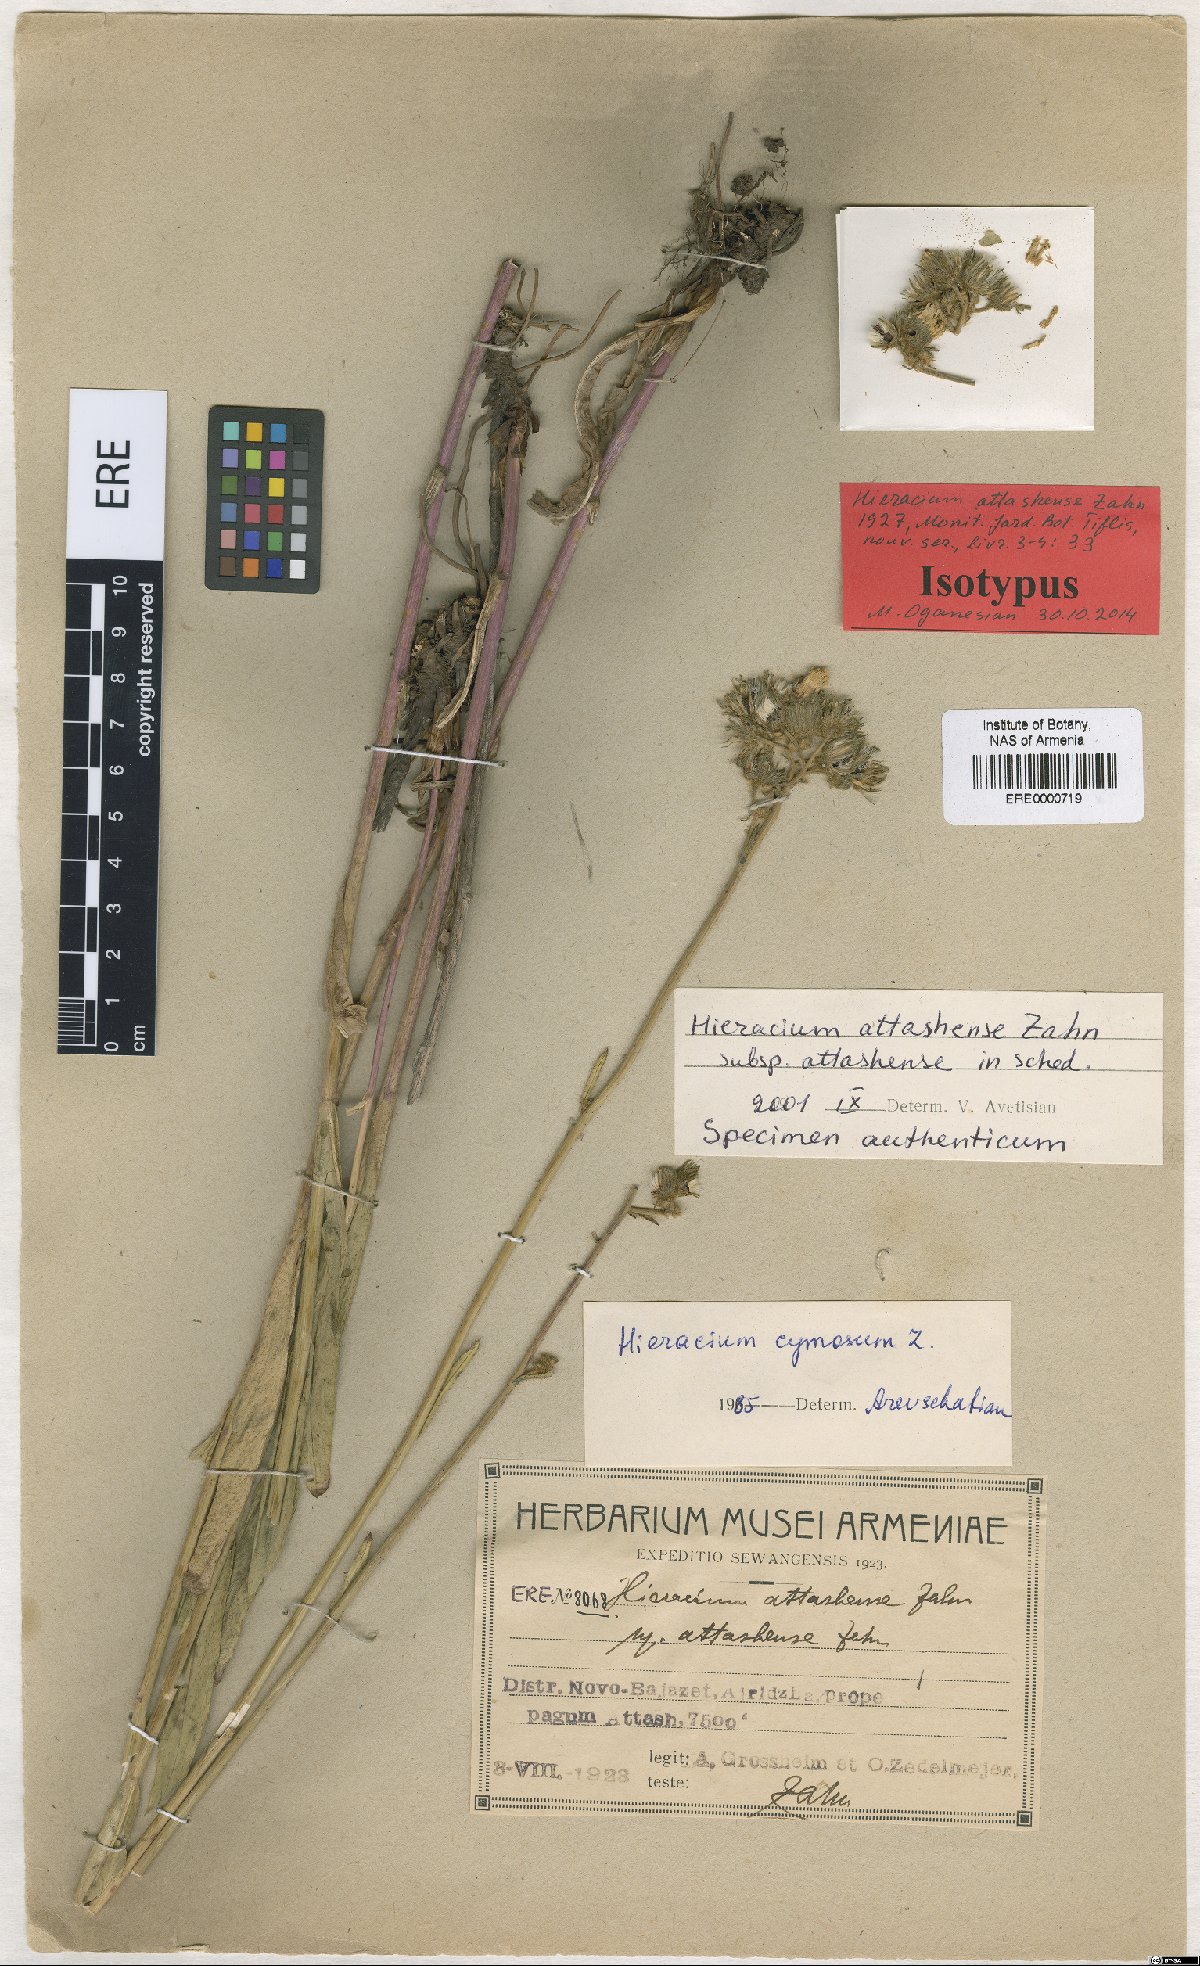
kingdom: Plantae
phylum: Tracheophyta
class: Magnoliopsida
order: Asterales
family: Asteraceae
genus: Pilosella
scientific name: Pilosella woronowiana
